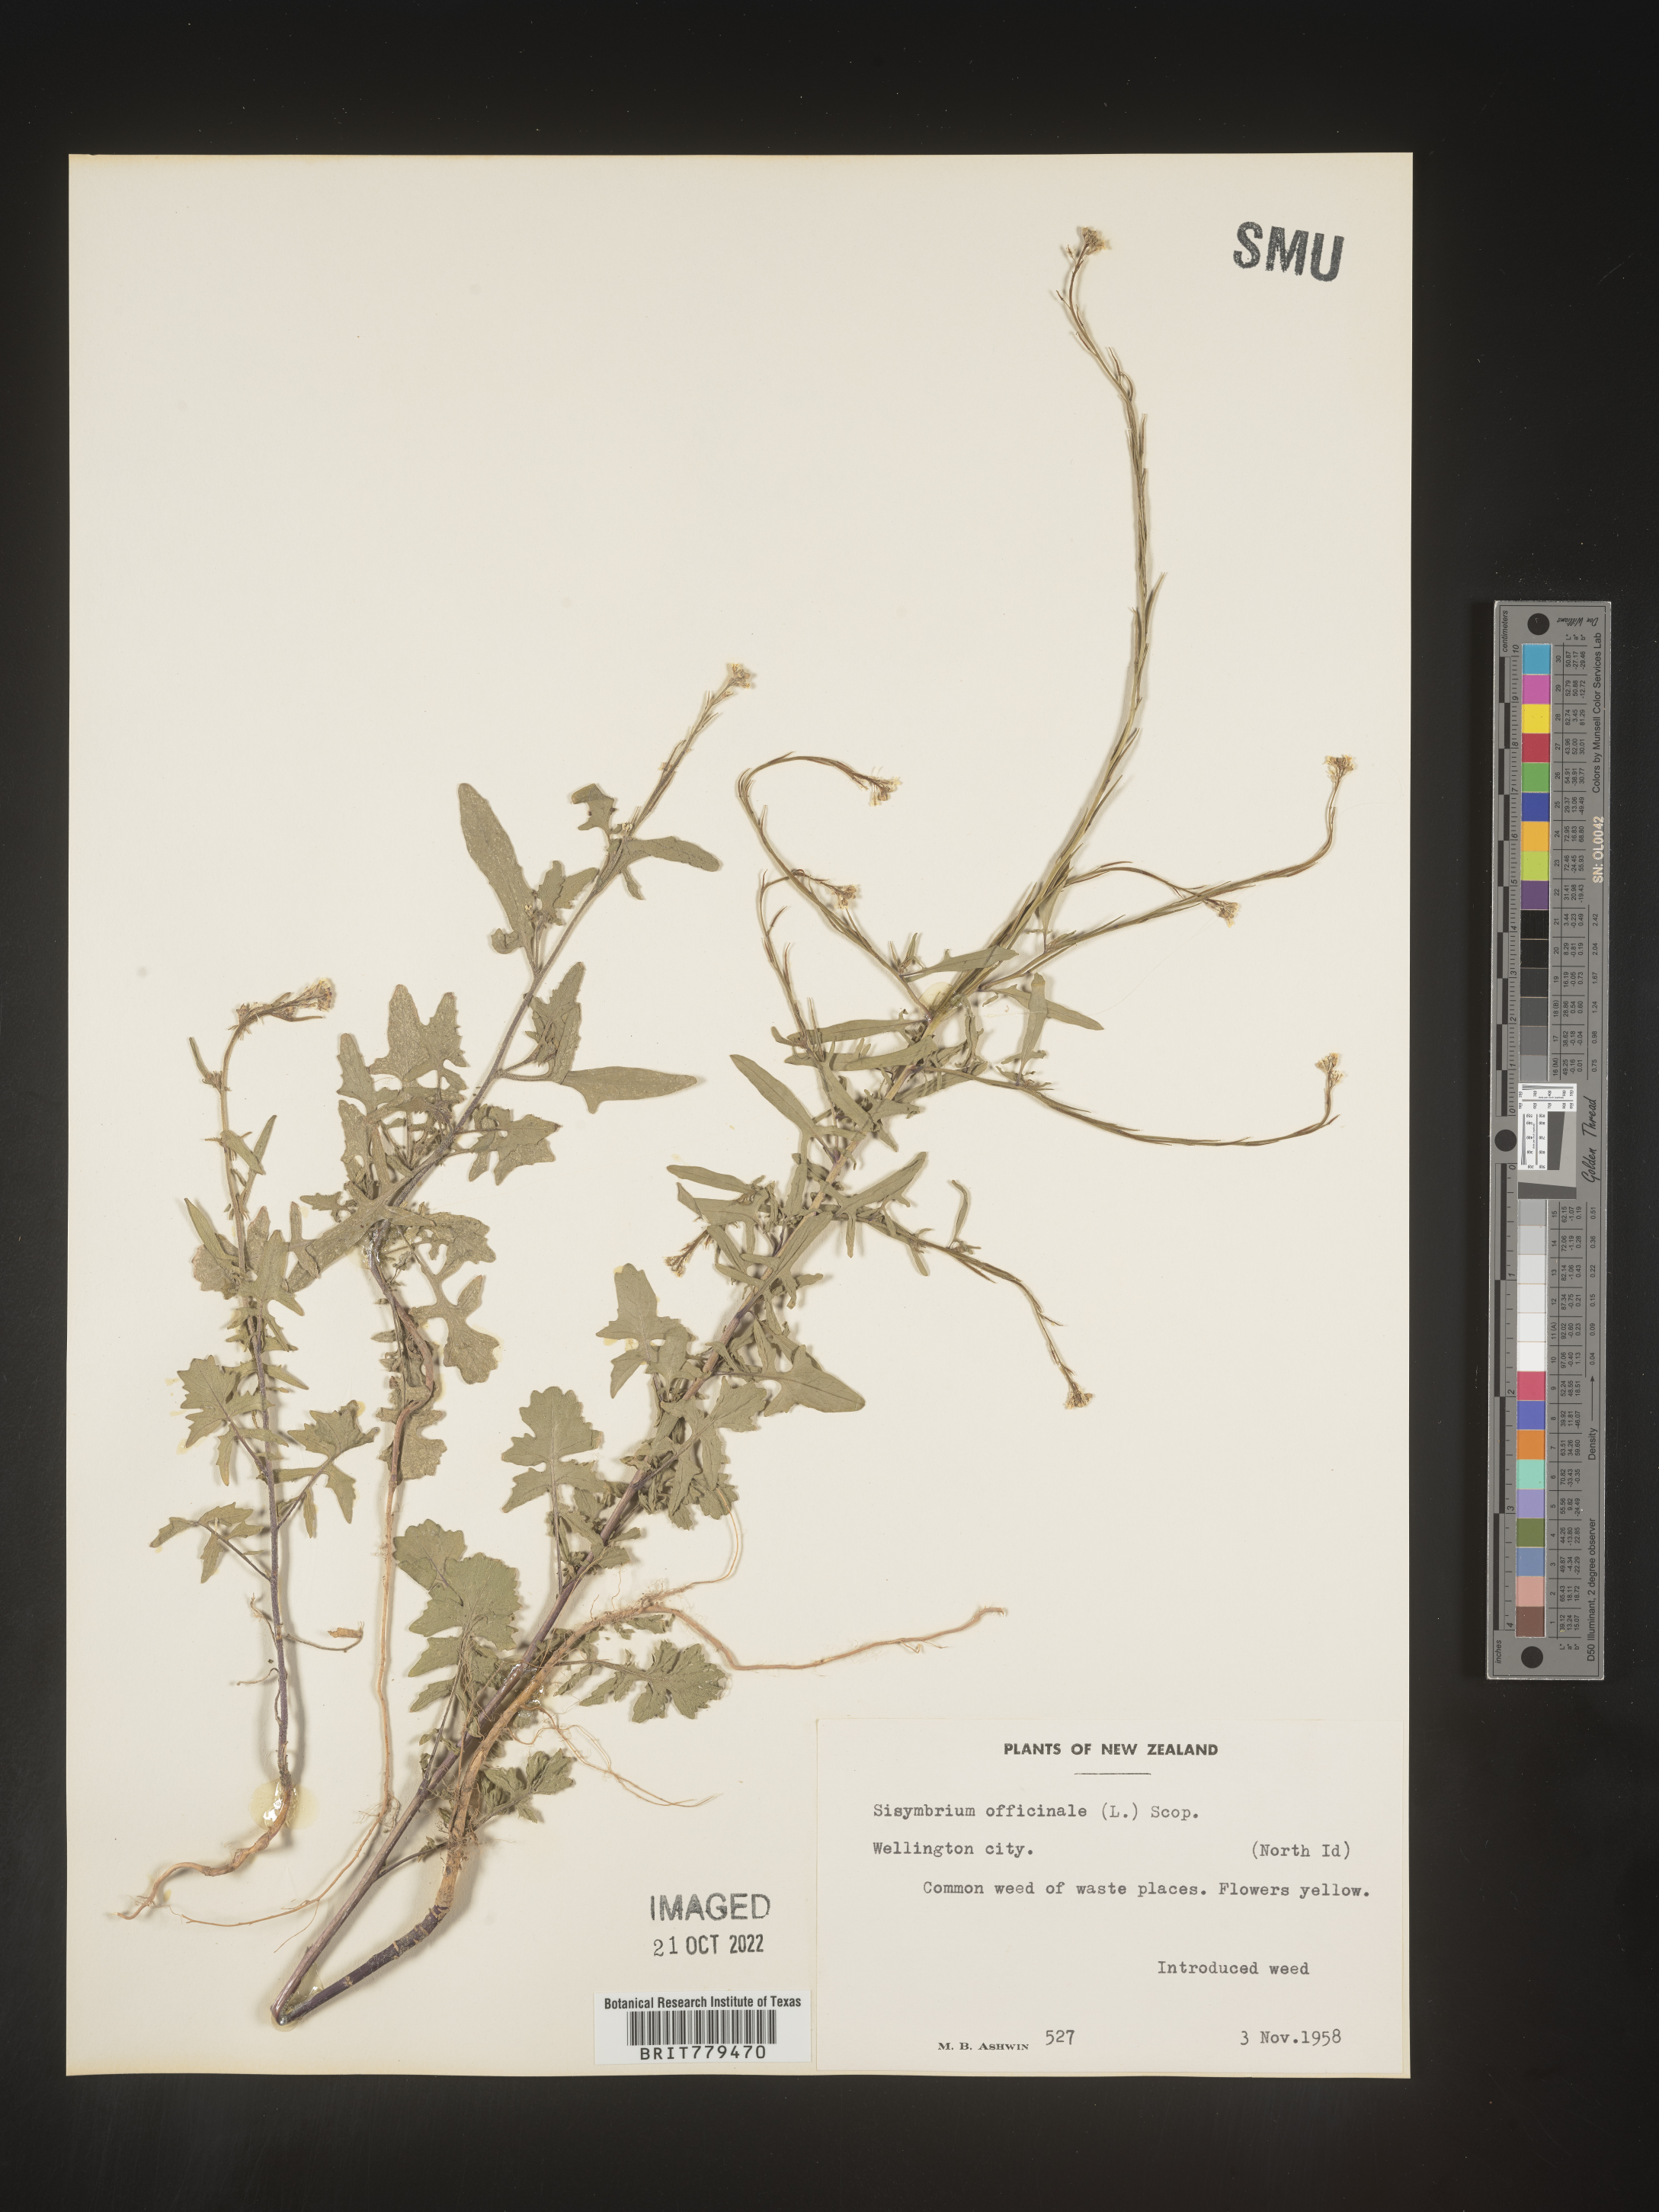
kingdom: Plantae
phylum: Tracheophyta
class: Magnoliopsida
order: Brassicales
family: Brassicaceae
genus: Sisymbrium
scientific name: Sisymbrium officinale
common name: Hedge mustard
